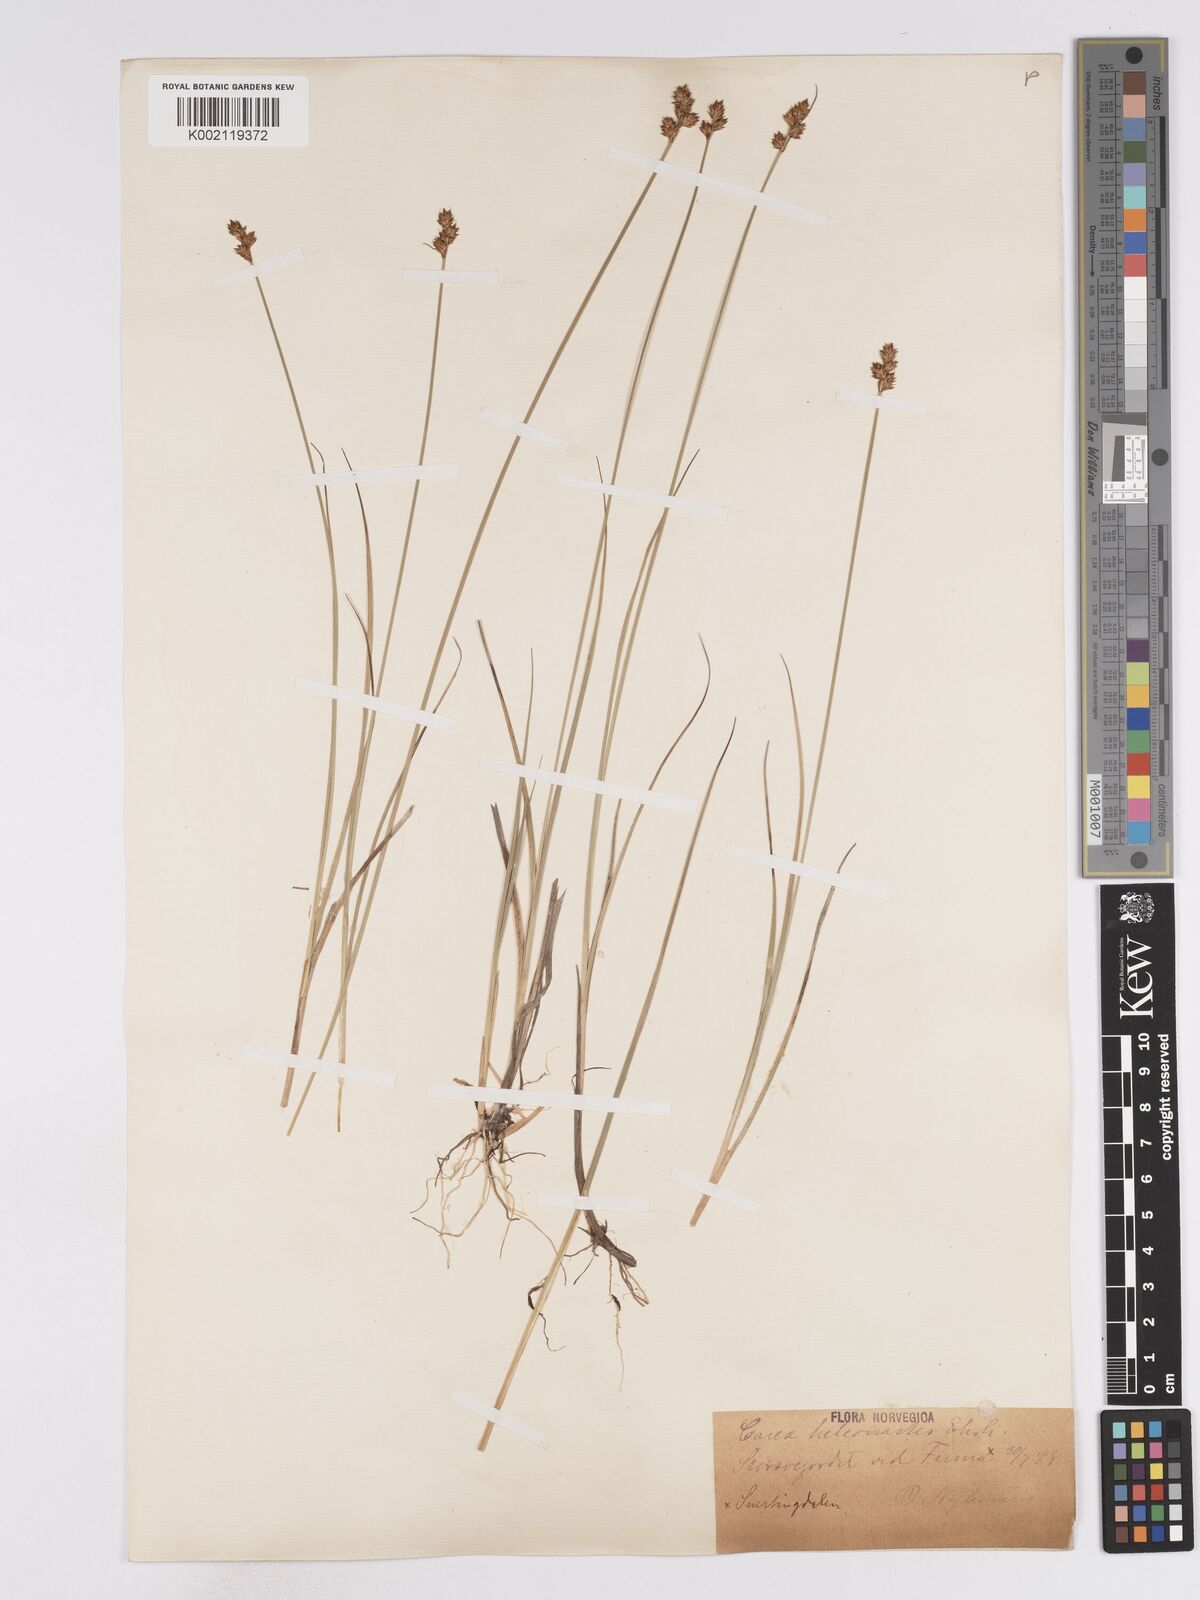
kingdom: Plantae
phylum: Tracheophyta
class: Liliopsida
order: Poales
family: Cyperaceae
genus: Carex
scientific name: Carex heleonastes
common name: Hudson bay sedge
